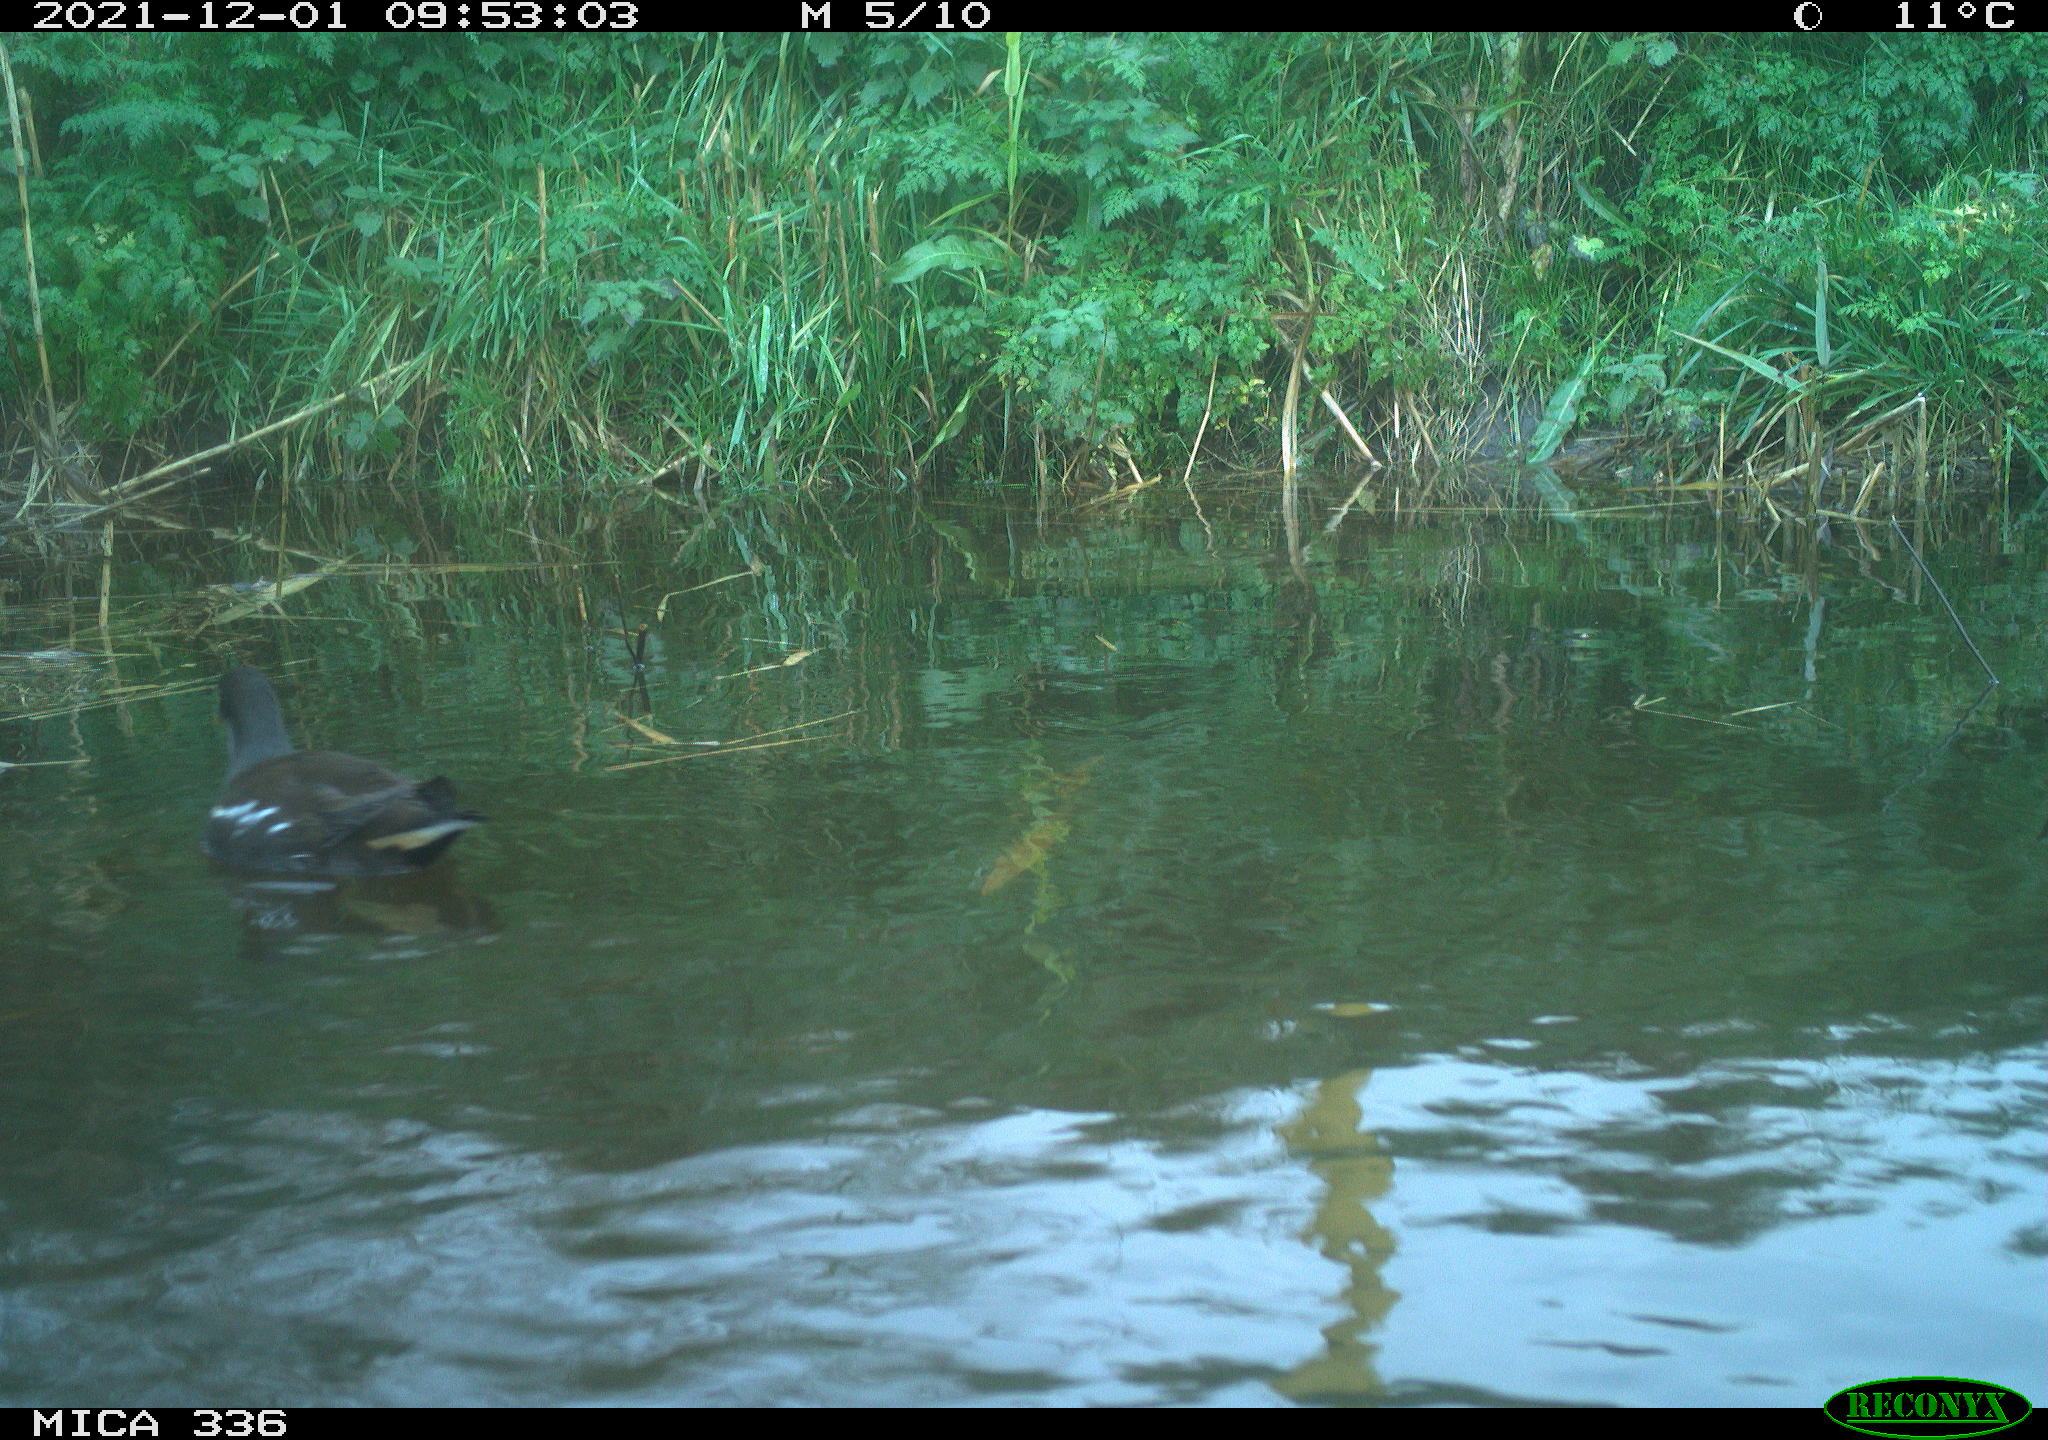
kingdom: Animalia
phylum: Chordata
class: Aves
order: Gruiformes
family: Rallidae
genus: Gallinula
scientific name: Gallinula chloropus
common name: Common moorhen
